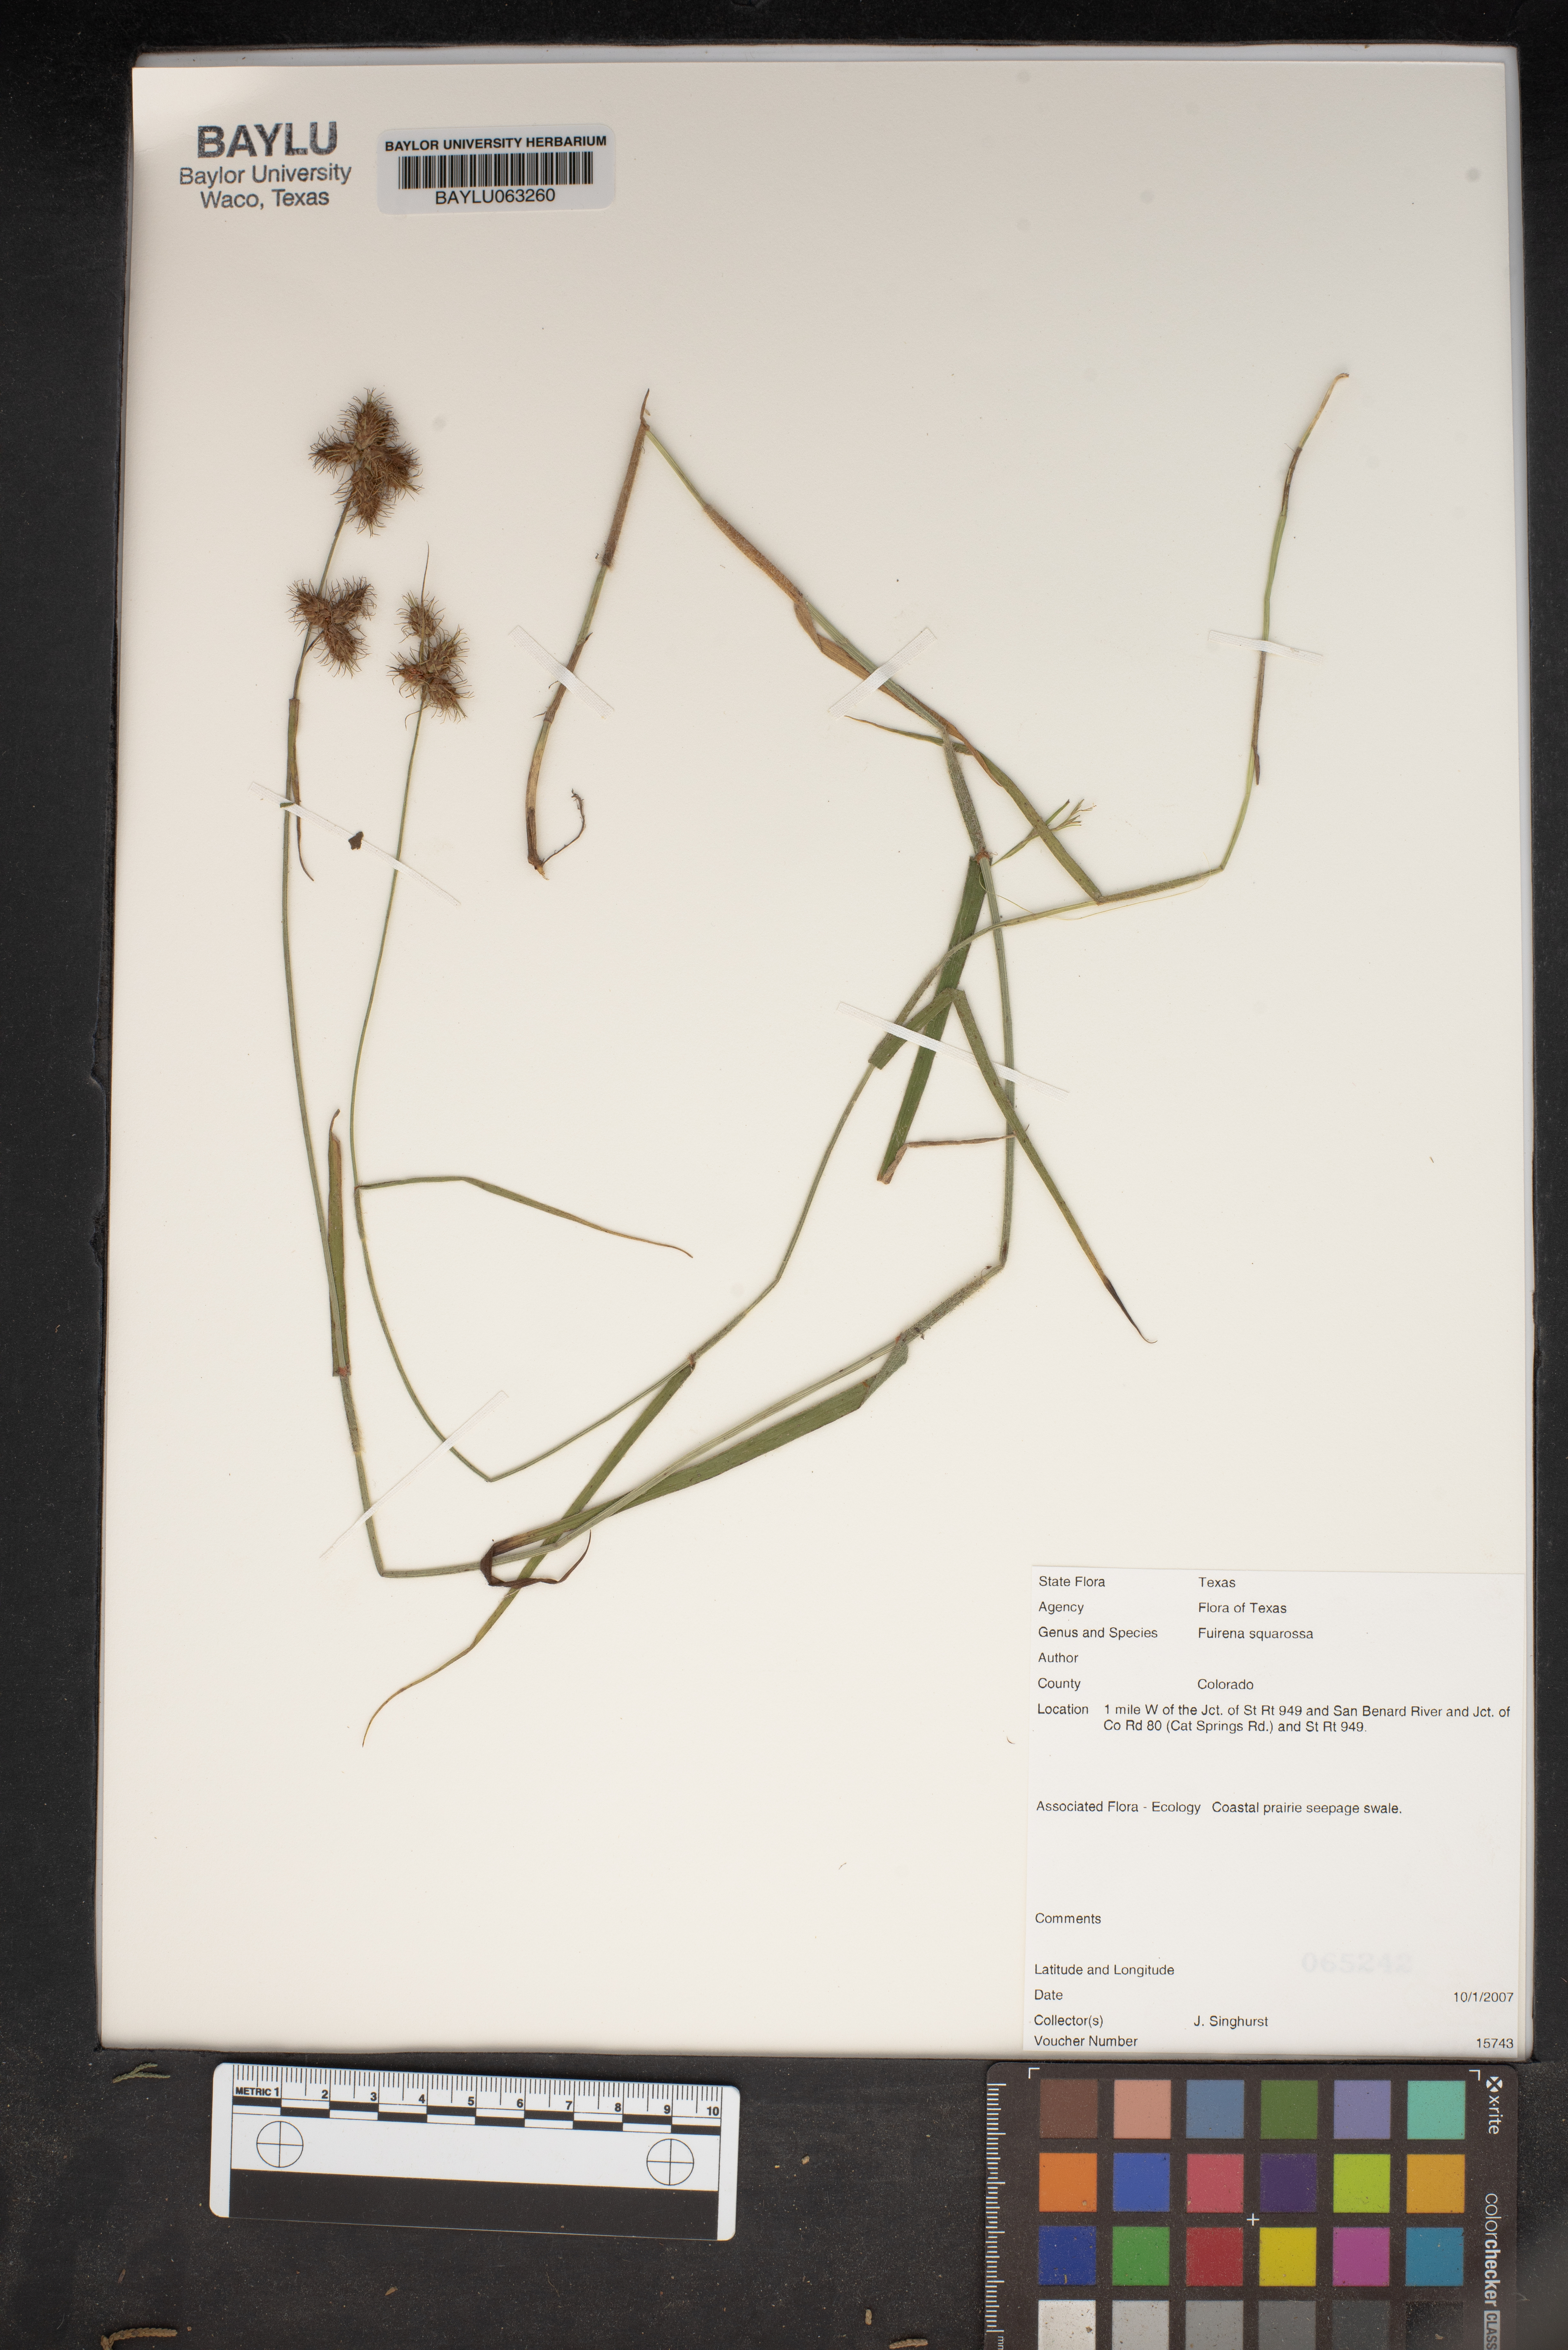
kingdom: Plantae
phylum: Tracheophyta
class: Liliopsida
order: Poales
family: Cyperaceae
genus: Fuirena
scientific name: Fuirena squarrosa
